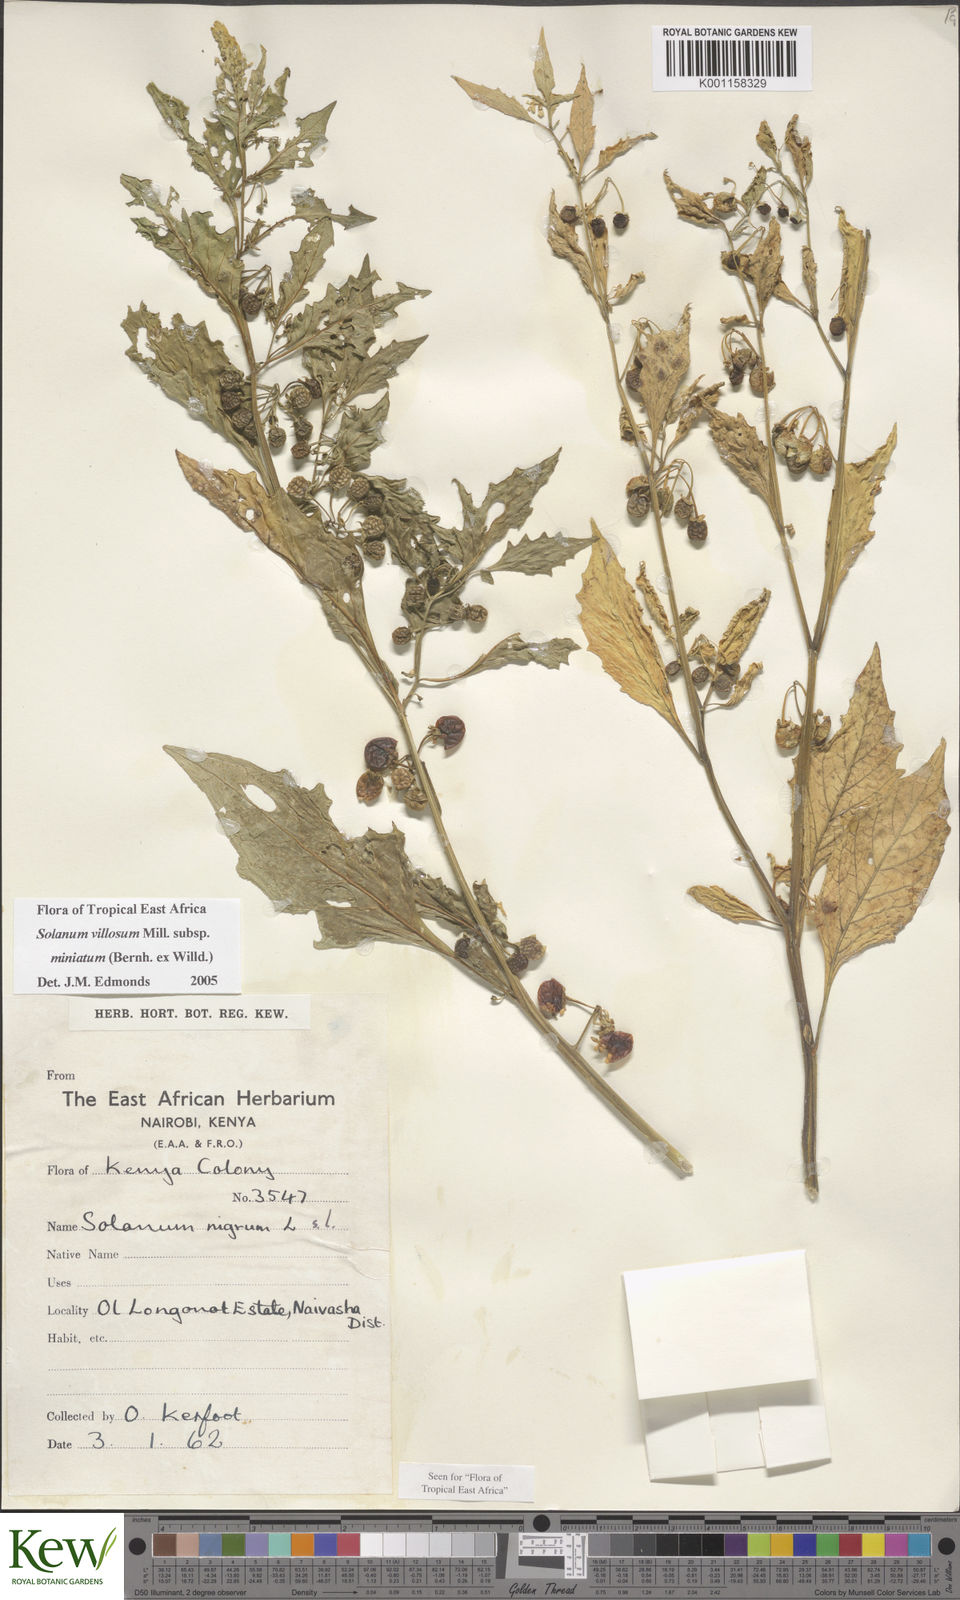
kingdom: Plantae
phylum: Tracheophyta
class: Magnoliopsida
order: Solanales
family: Solanaceae
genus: Solanum
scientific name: Solanum villosum
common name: Red nightshade
